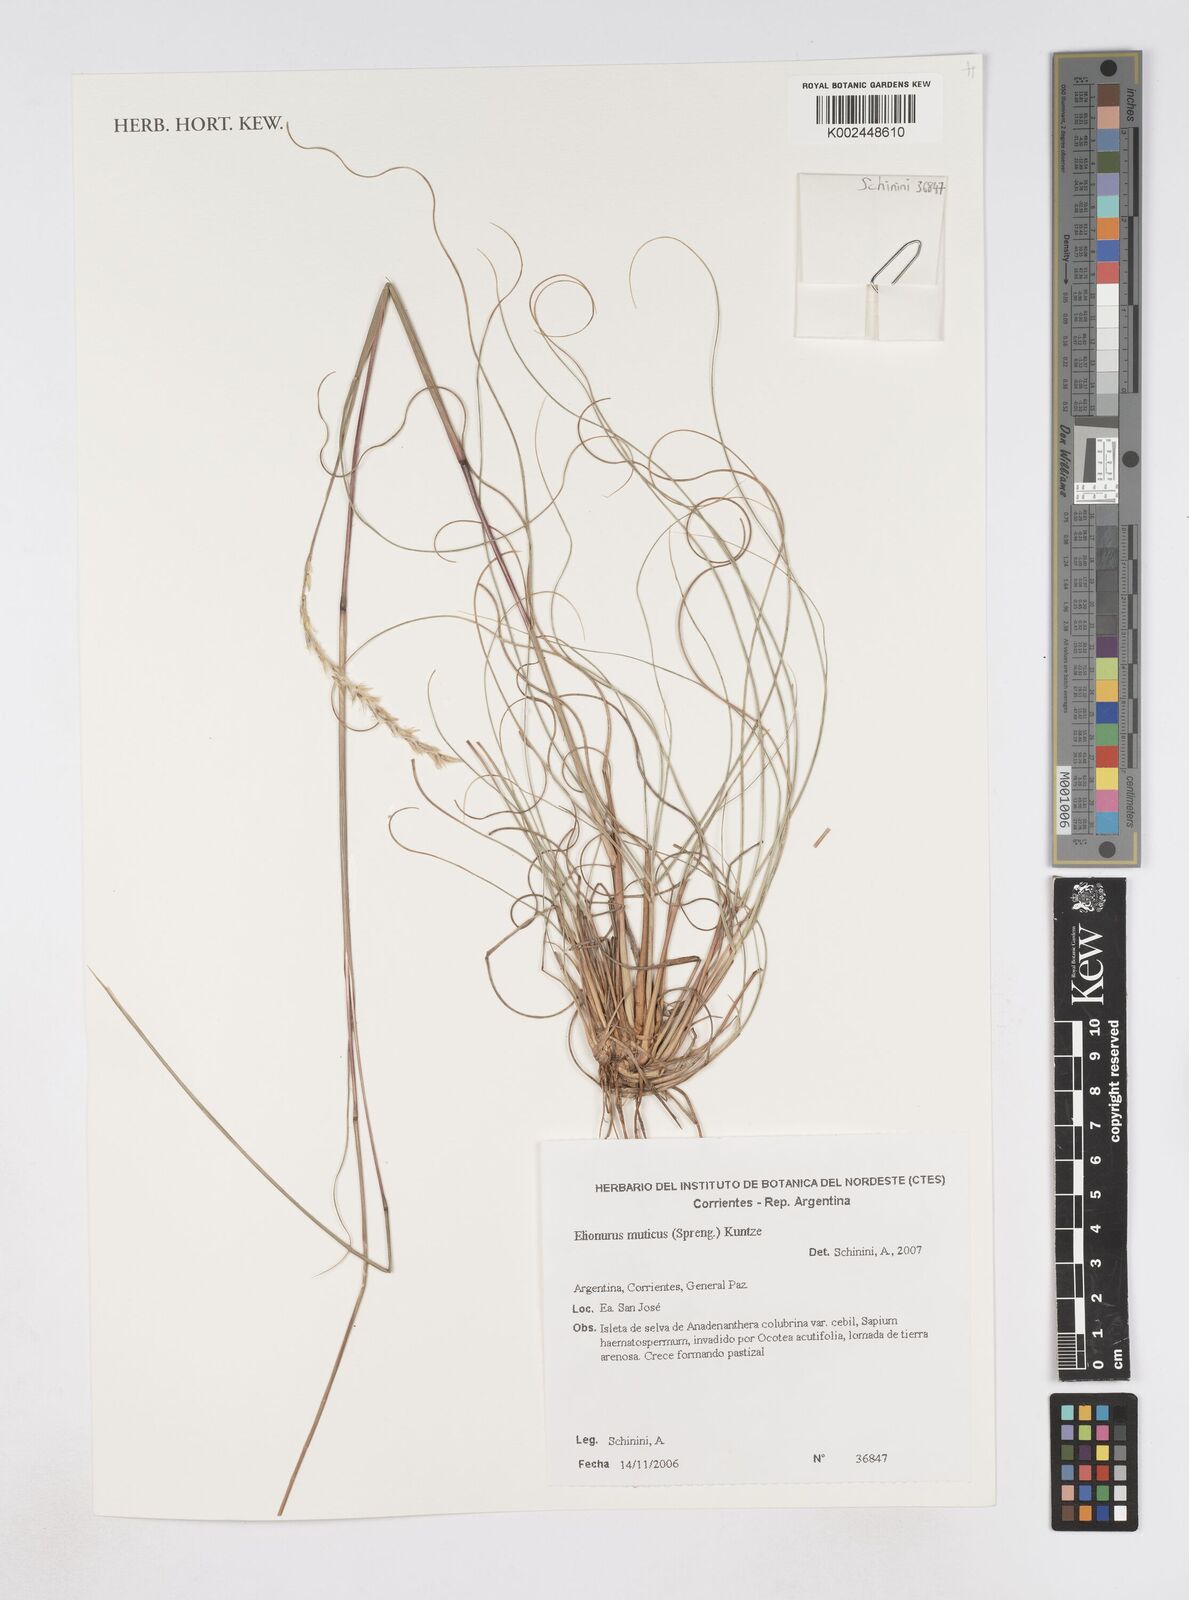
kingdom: Plantae
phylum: Tracheophyta
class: Liliopsida
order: Poales
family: Poaceae
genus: Elionurus
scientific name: Elionurus muticus
